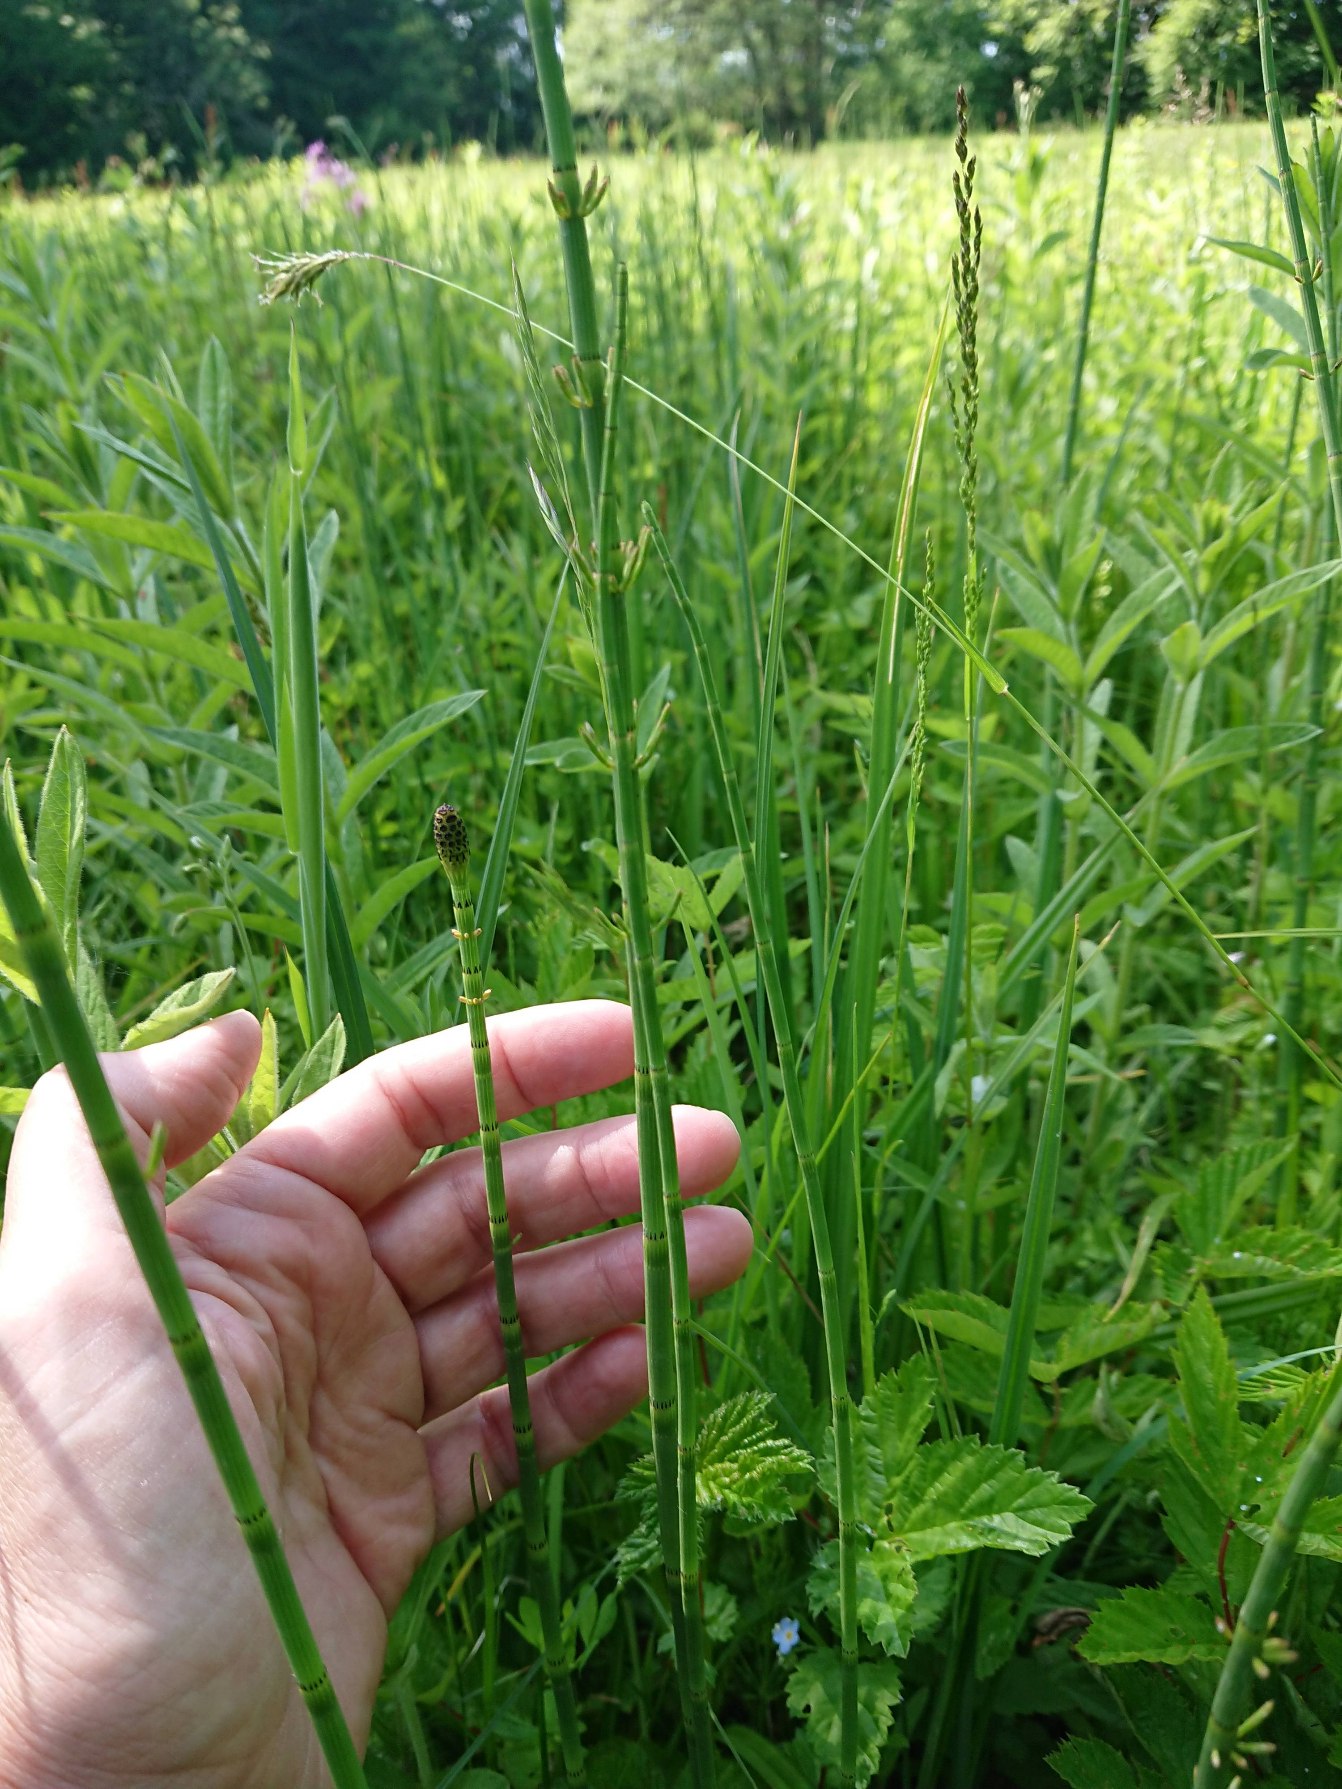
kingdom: Plantae
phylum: Tracheophyta
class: Polypodiopsida
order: Equisetales
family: Equisetaceae
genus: Equisetum
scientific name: Equisetum fluviatile
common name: Dynd-padderok
